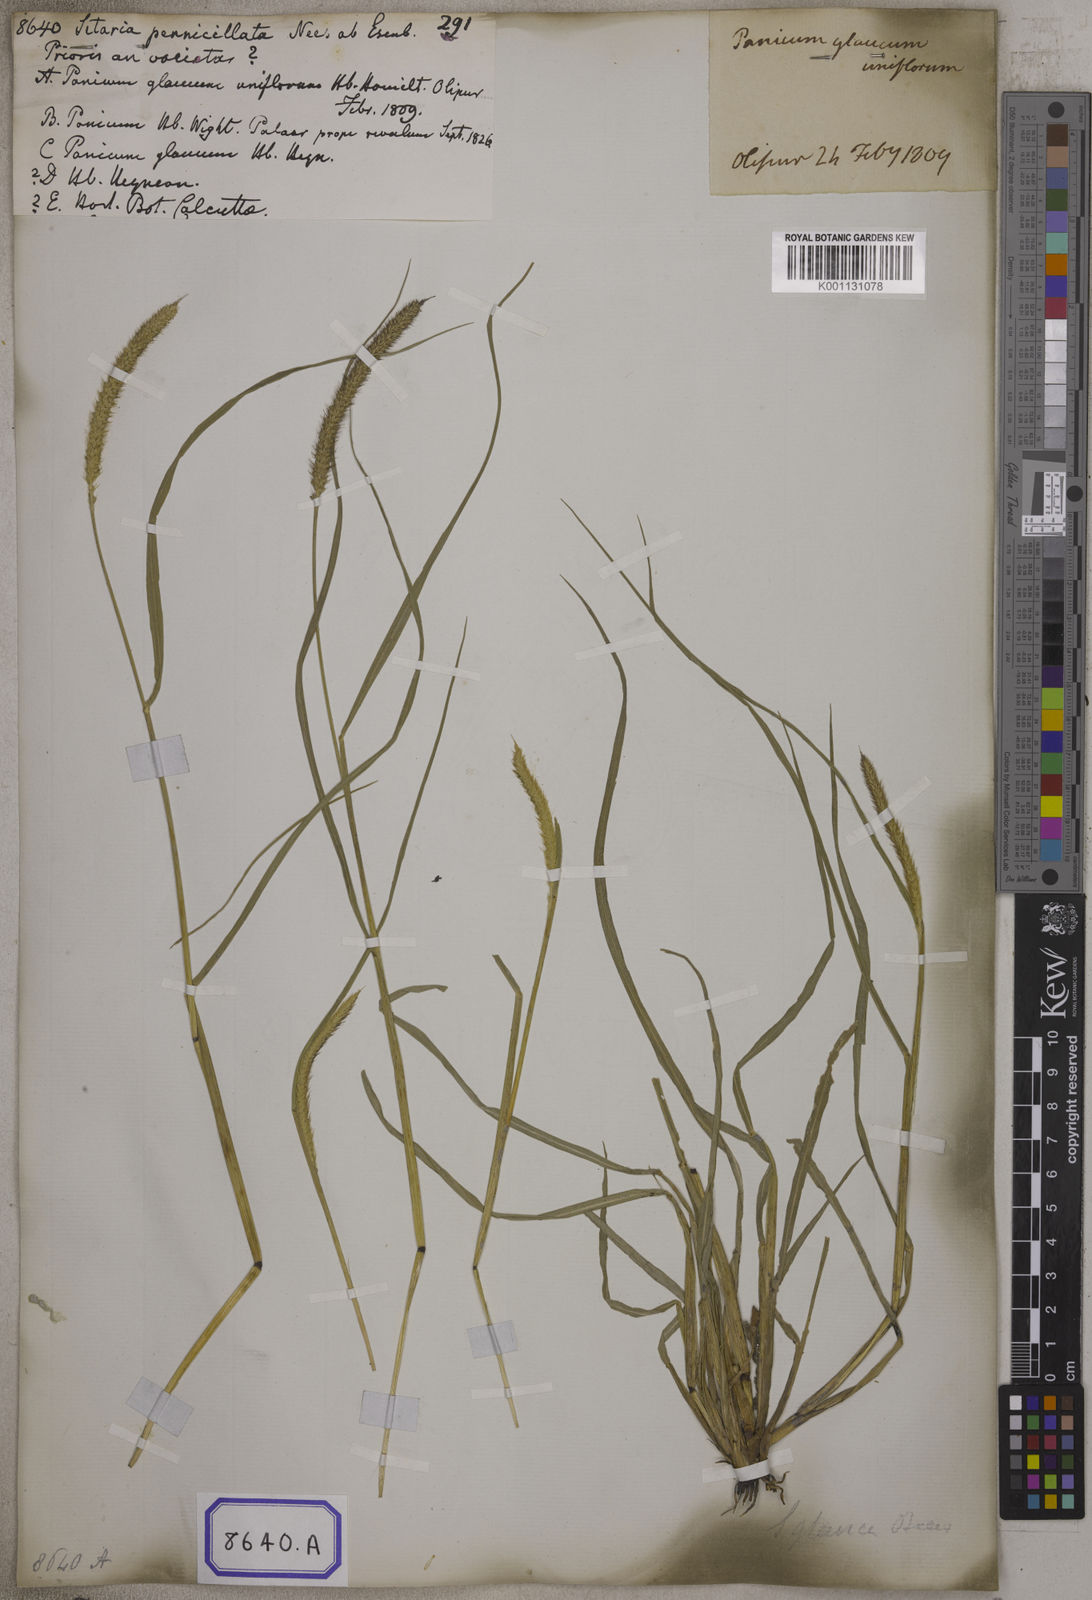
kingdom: Plantae
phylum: Tracheophyta
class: Liliopsida
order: Poales
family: Poaceae
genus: Setaria
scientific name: Setaria pumila
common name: Yellow bristle-grass
